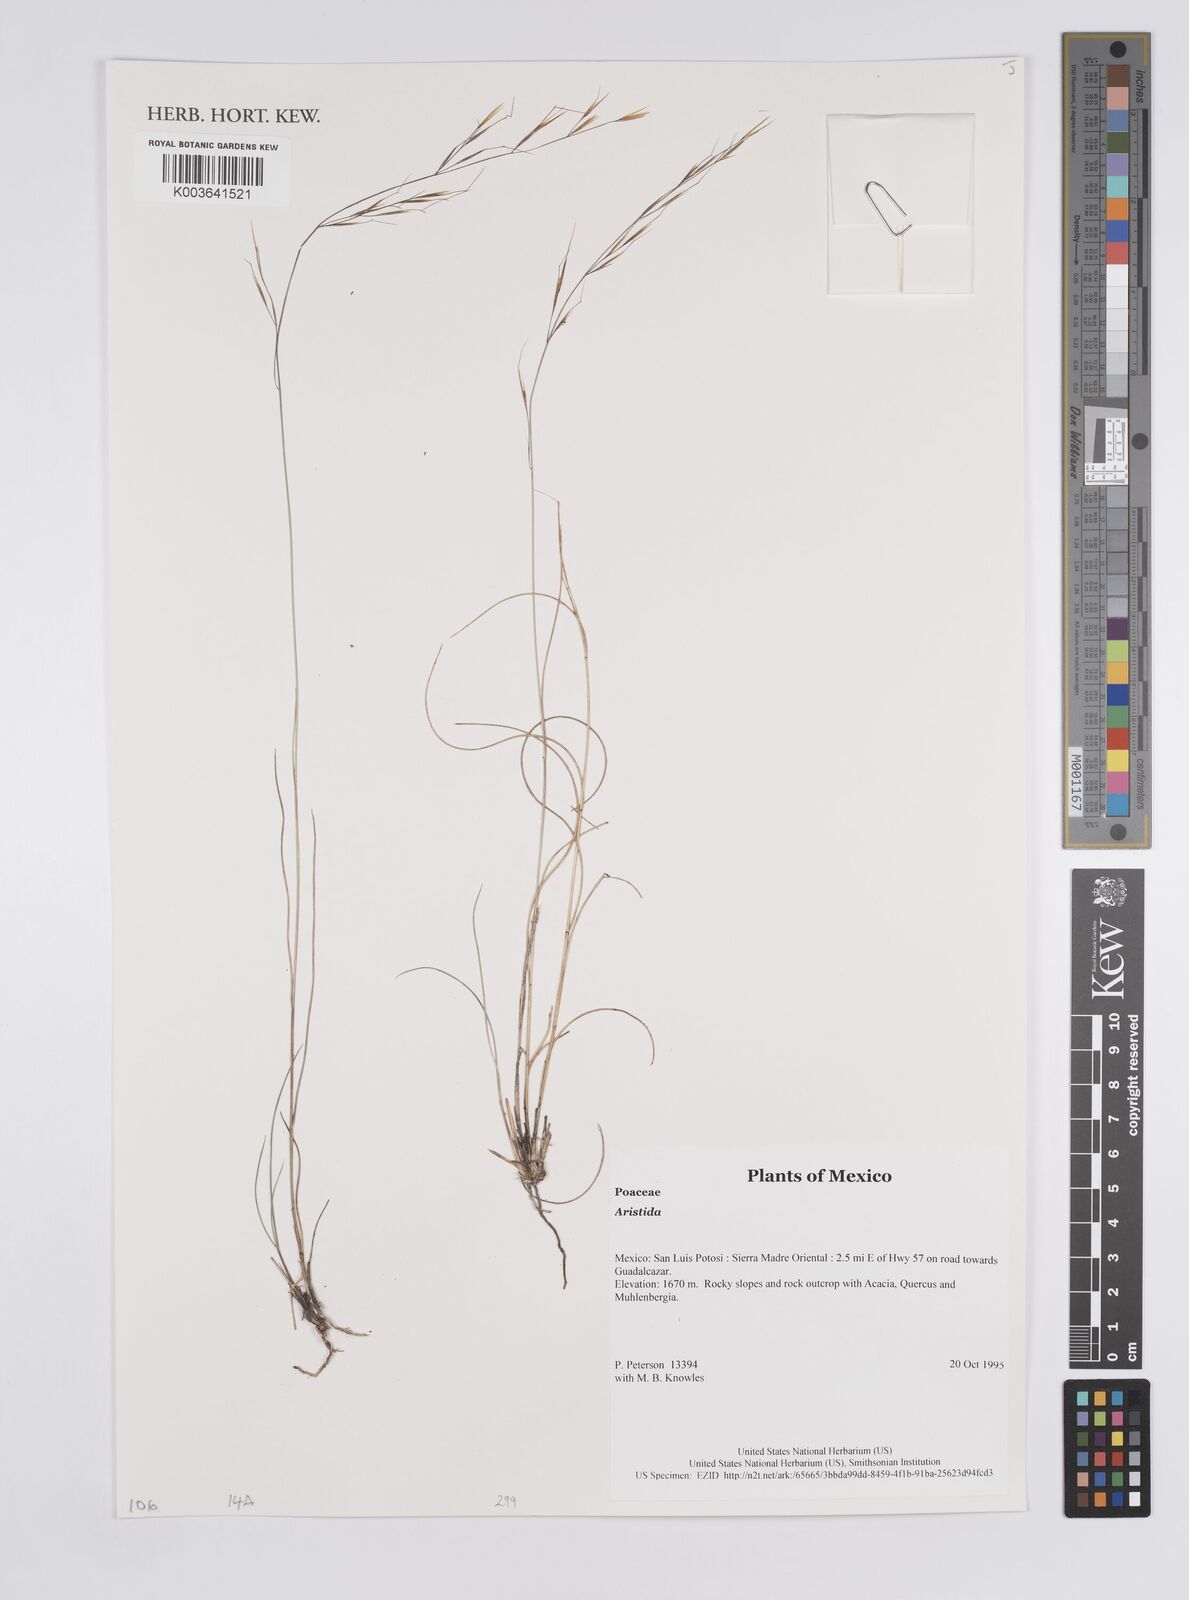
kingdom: Plantae
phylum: Tracheophyta
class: Liliopsida
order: Poales
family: Poaceae
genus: Aristida
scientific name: Aristida
